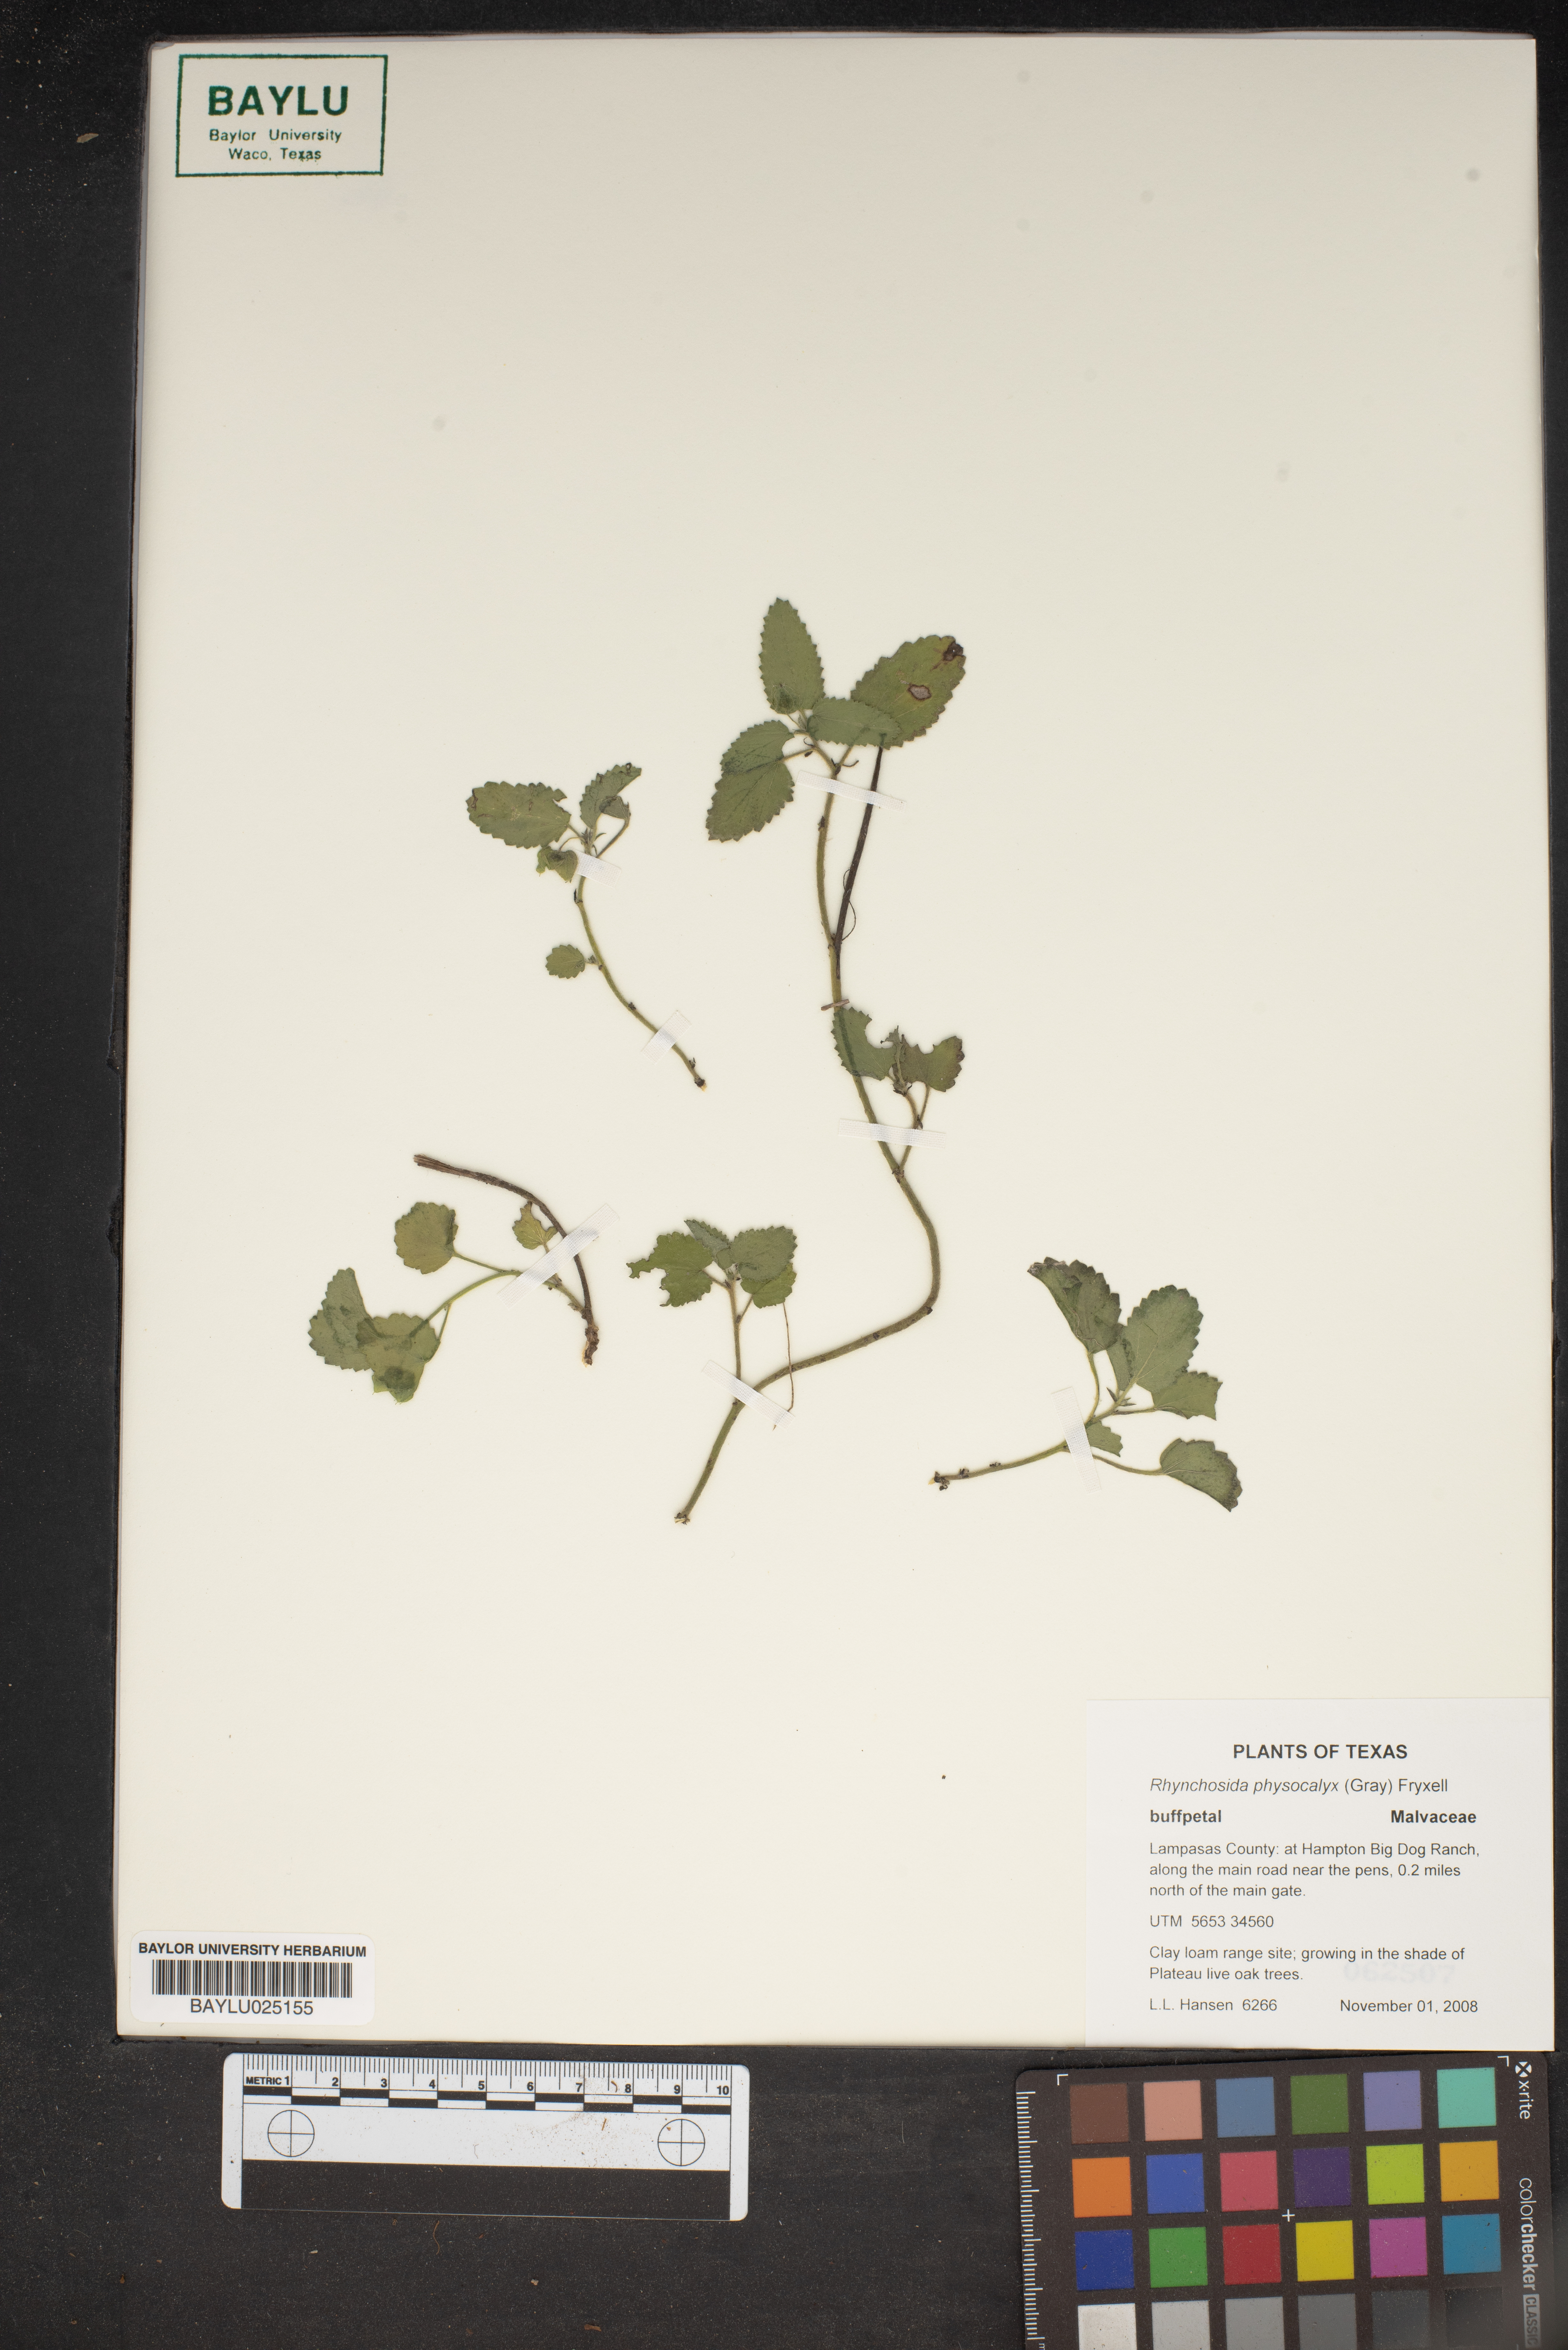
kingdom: Plantae
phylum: Tracheophyta
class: Magnoliopsida
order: Malvales
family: Malvaceae
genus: Rhynchosida
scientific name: Rhynchosida physocalyx
